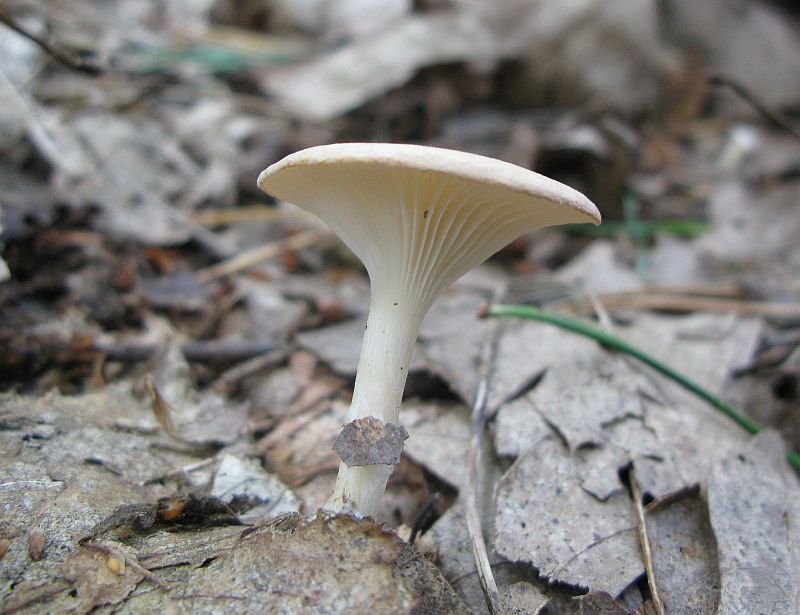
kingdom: Fungi
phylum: Basidiomycota
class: Agaricomycetes
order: Agaricales
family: Tricholomataceae
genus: Infundibulicybe
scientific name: Infundibulicybe gibba
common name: almindelig tragthat
